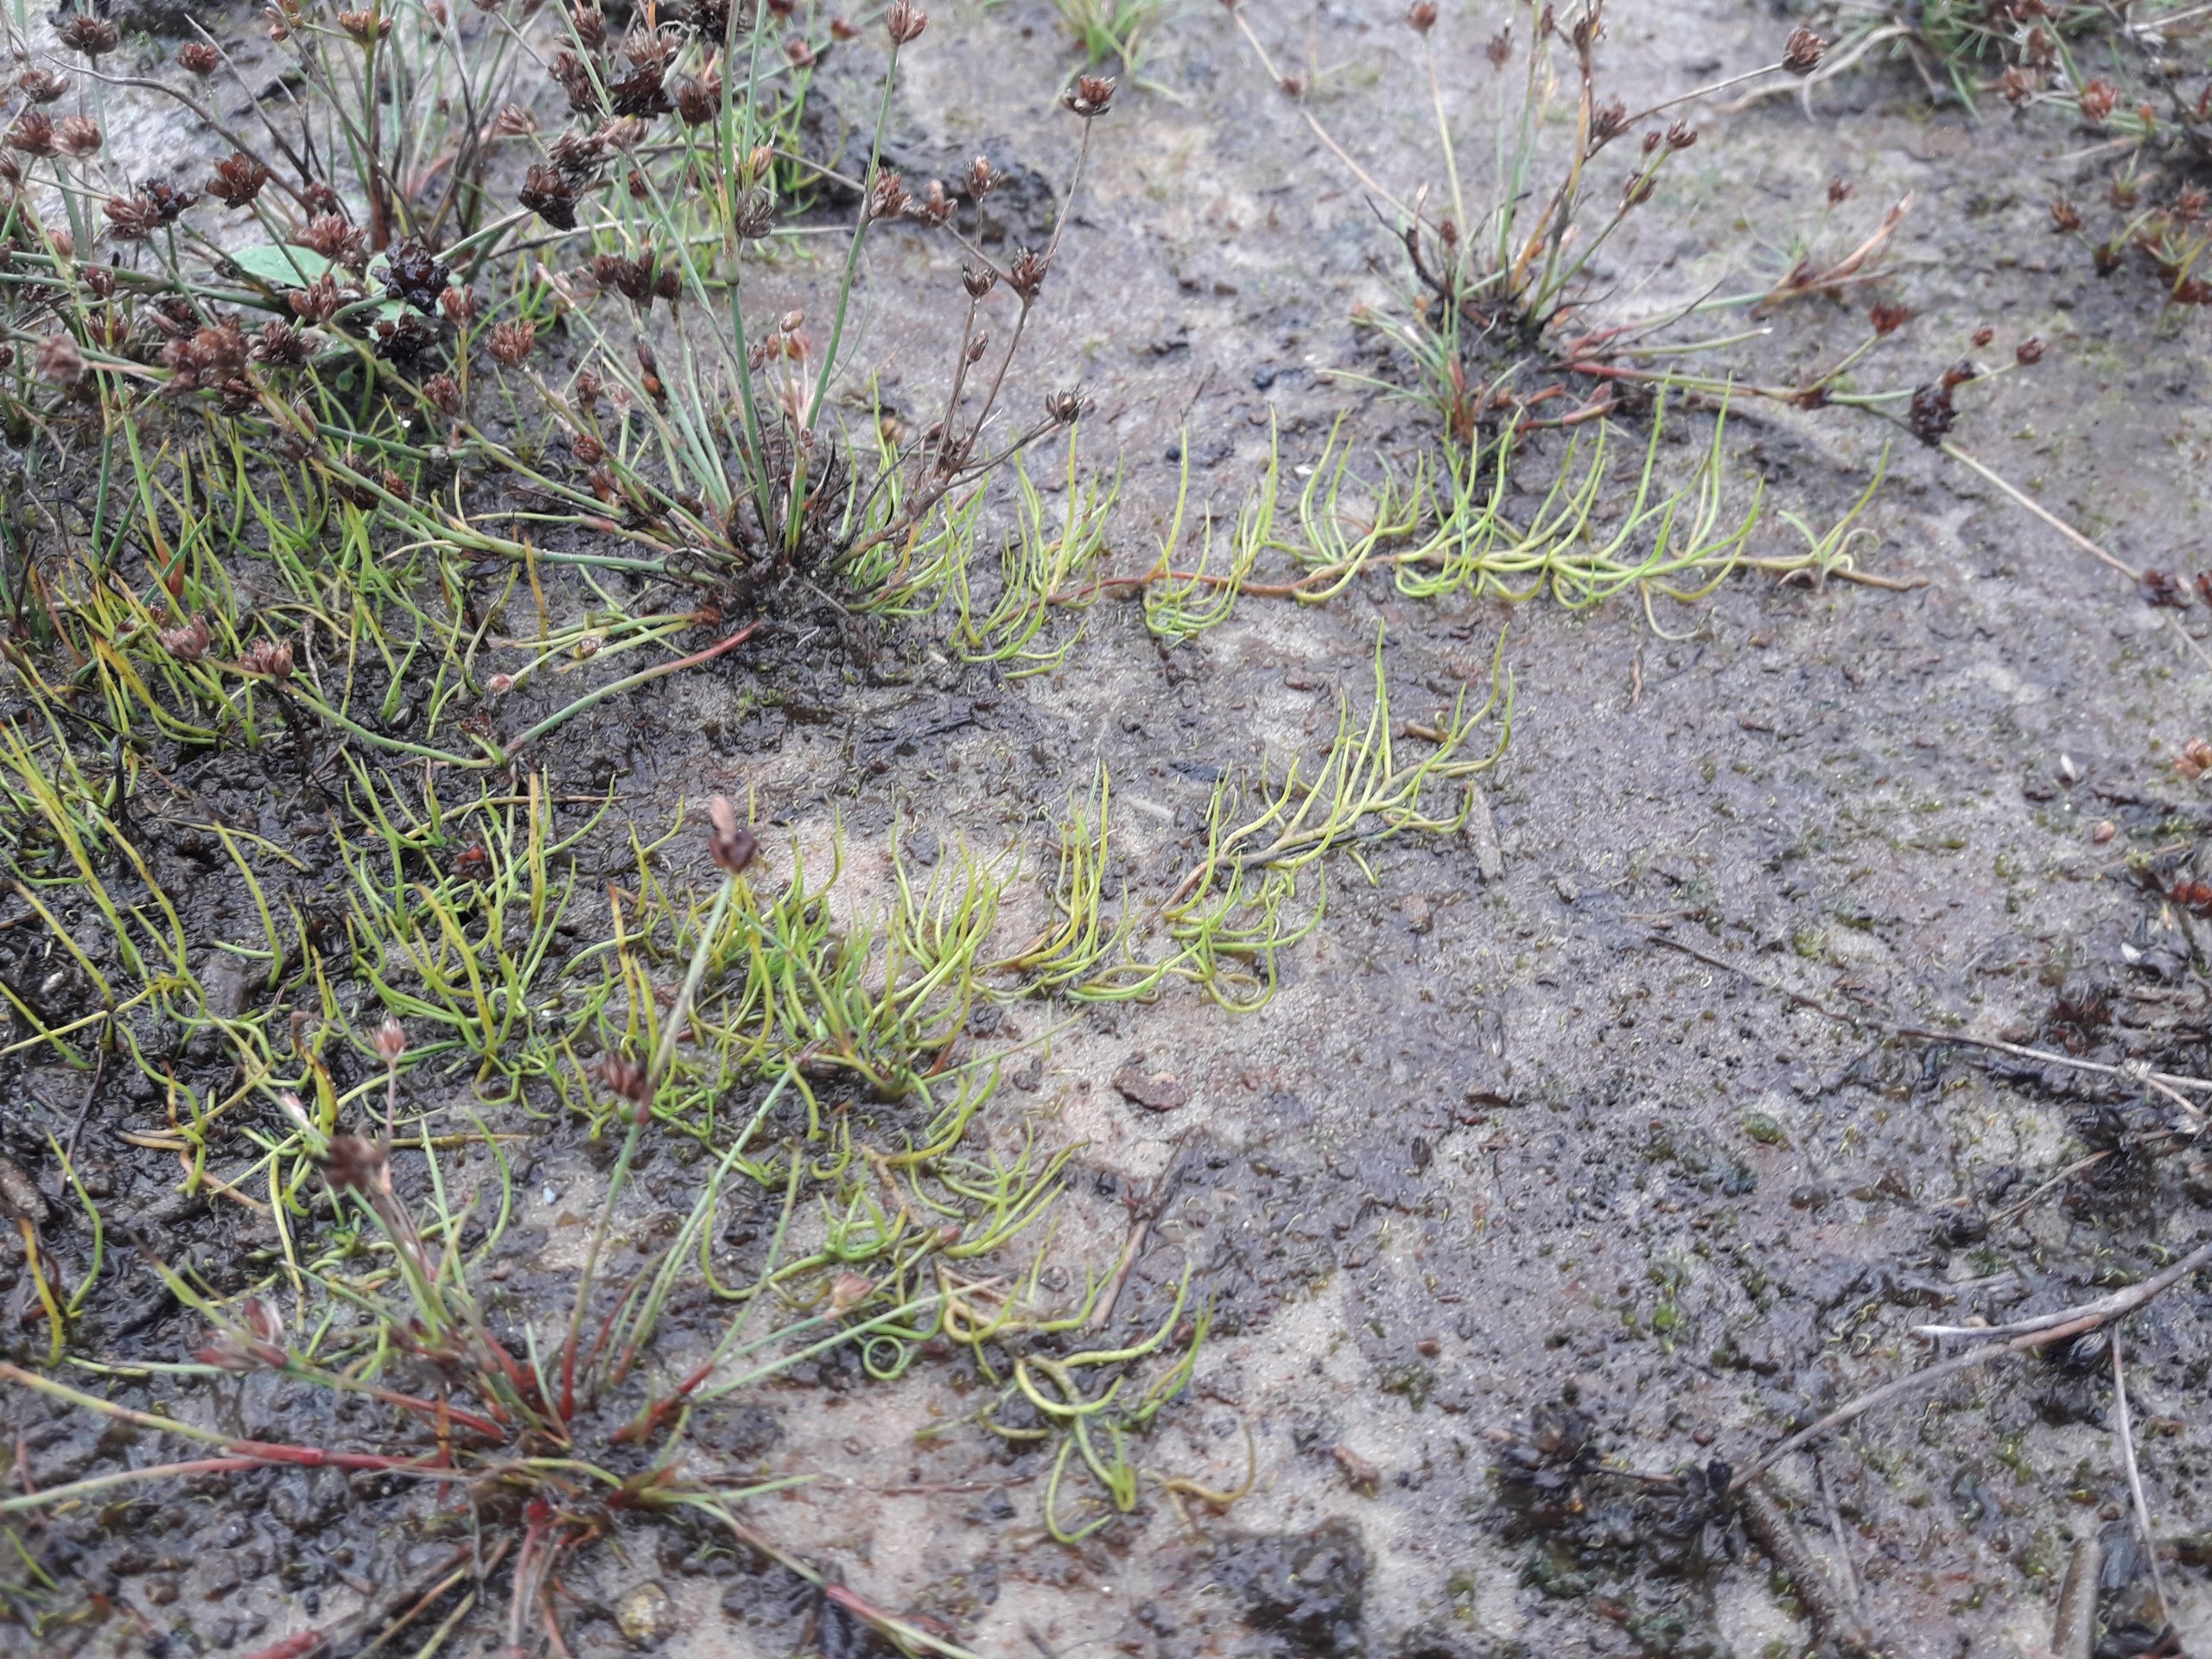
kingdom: Plantae
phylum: Tracheophyta
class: Polypodiopsida
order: Salviniales
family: Marsileaceae
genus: Pilularia
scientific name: Pilularia globulifera
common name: Pilledrager
